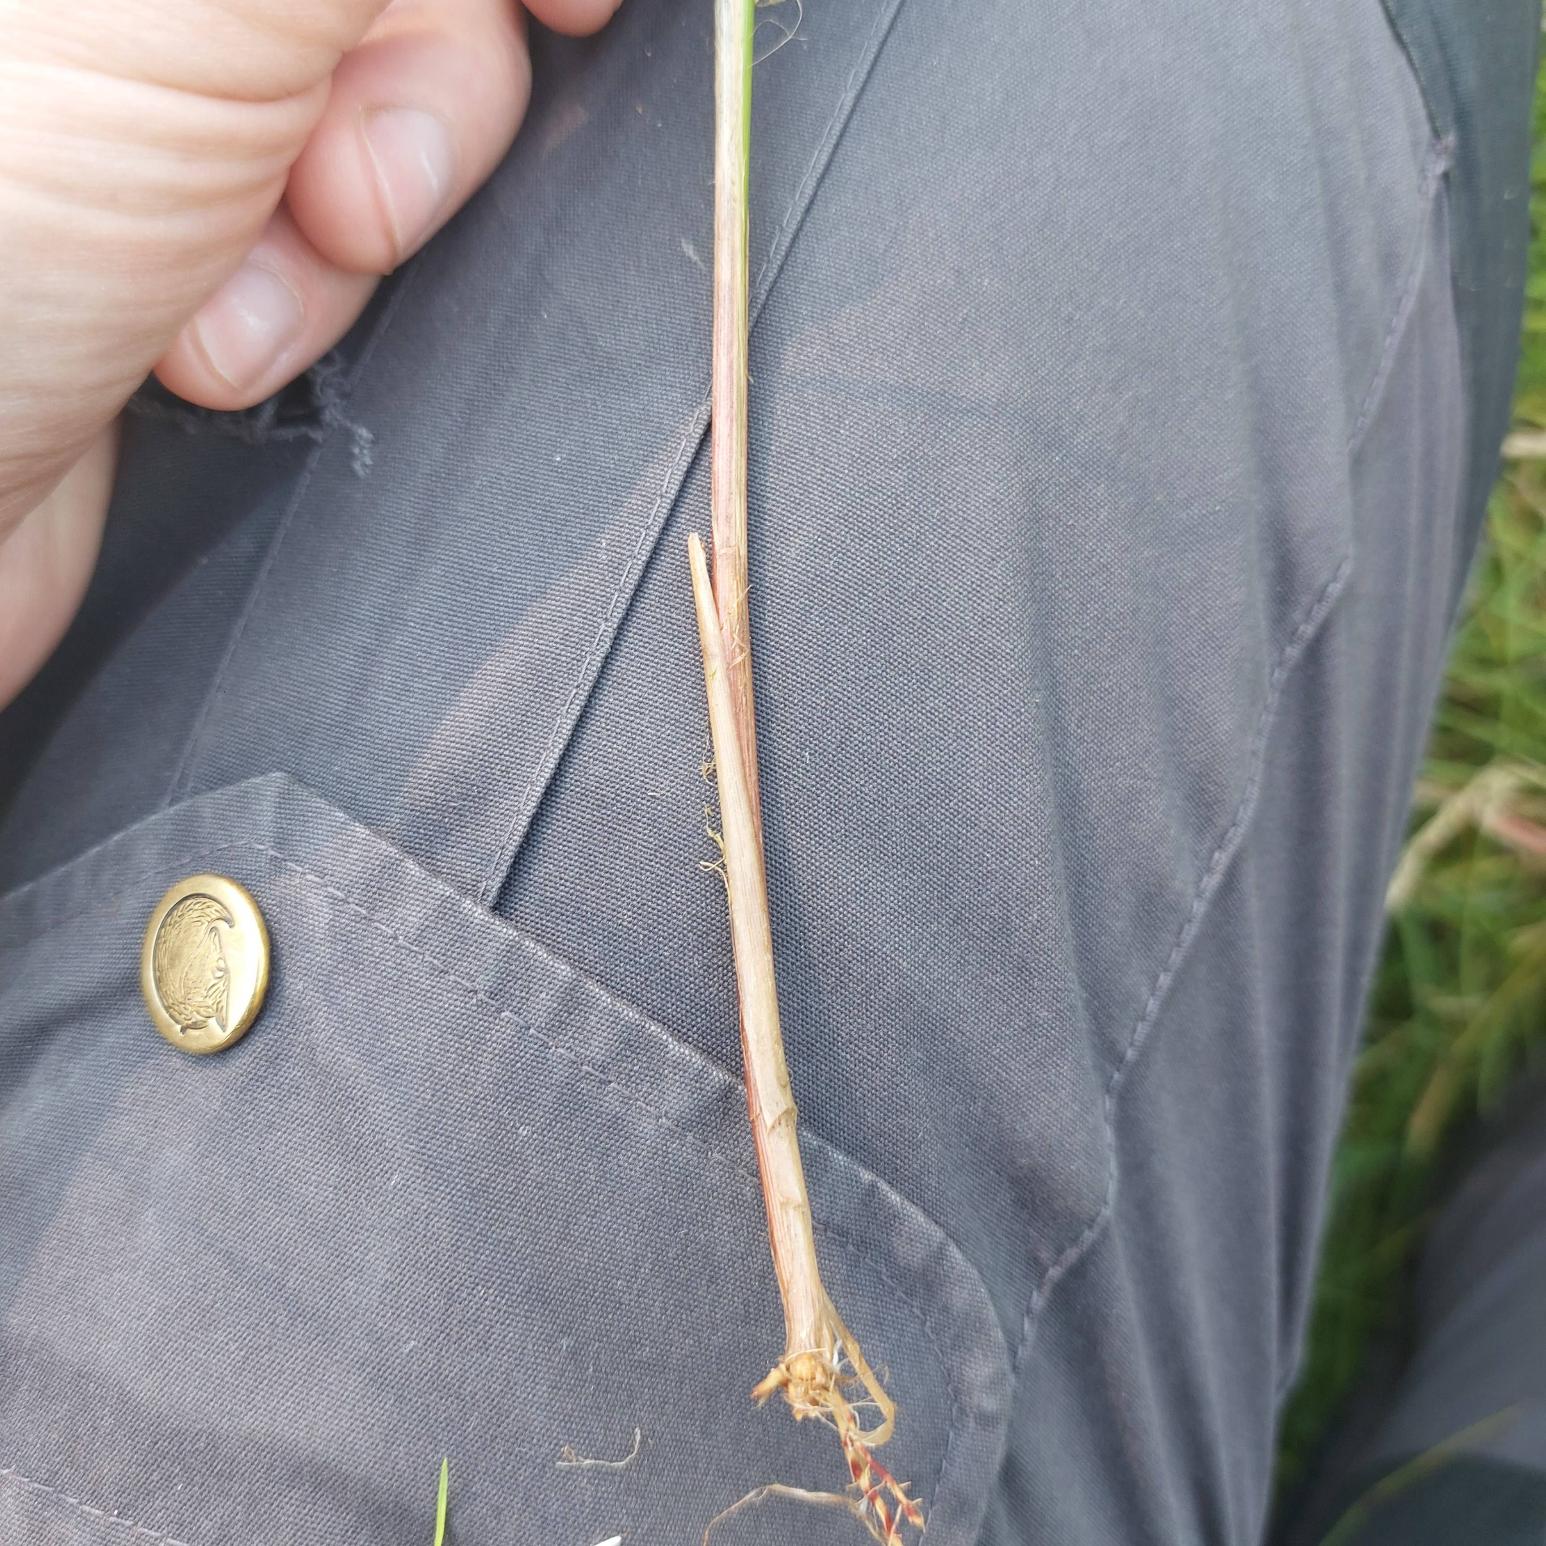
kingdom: Plantae
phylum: Tracheophyta
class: Liliopsida
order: Poales
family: Cyperaceae
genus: Carex
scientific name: Carex lasiocarpa
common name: Tråd-star
